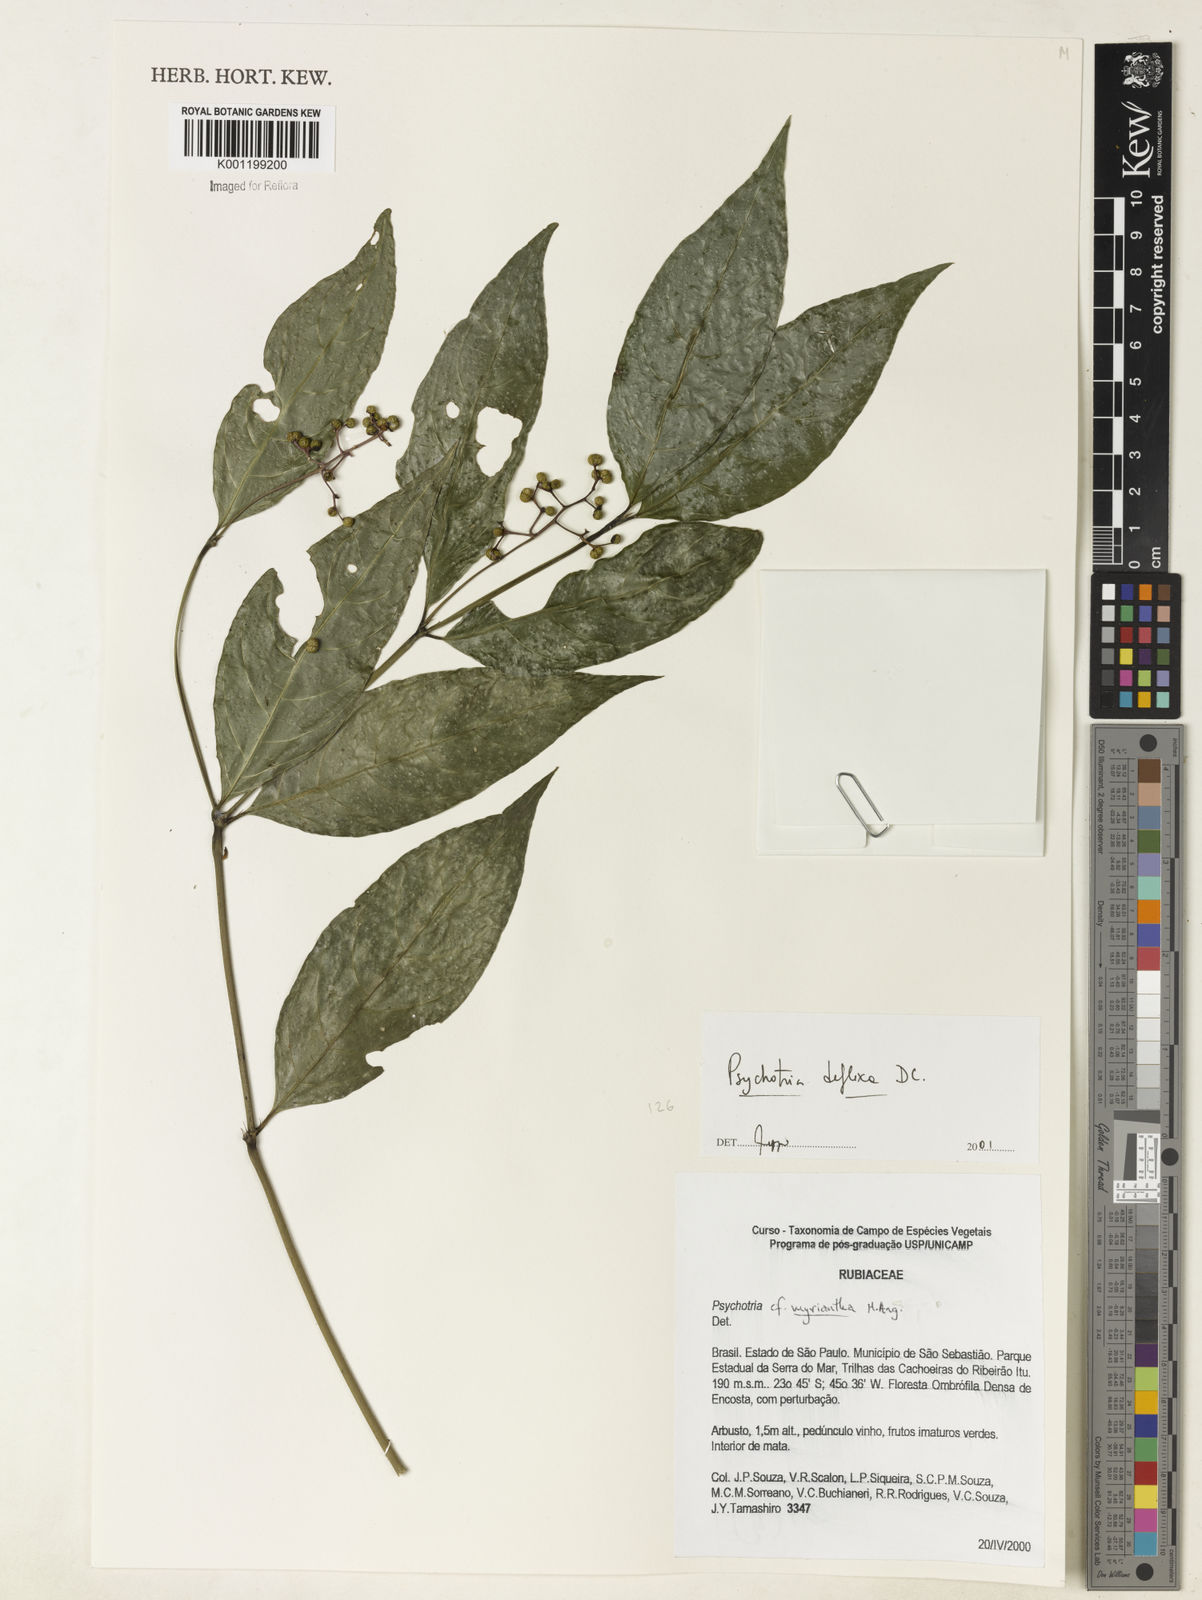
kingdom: Plantae
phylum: Tracheophyta
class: Magnoliopsida
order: Gentianales
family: Rubiaceae
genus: Palicourea
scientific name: Palicourea deflexa
